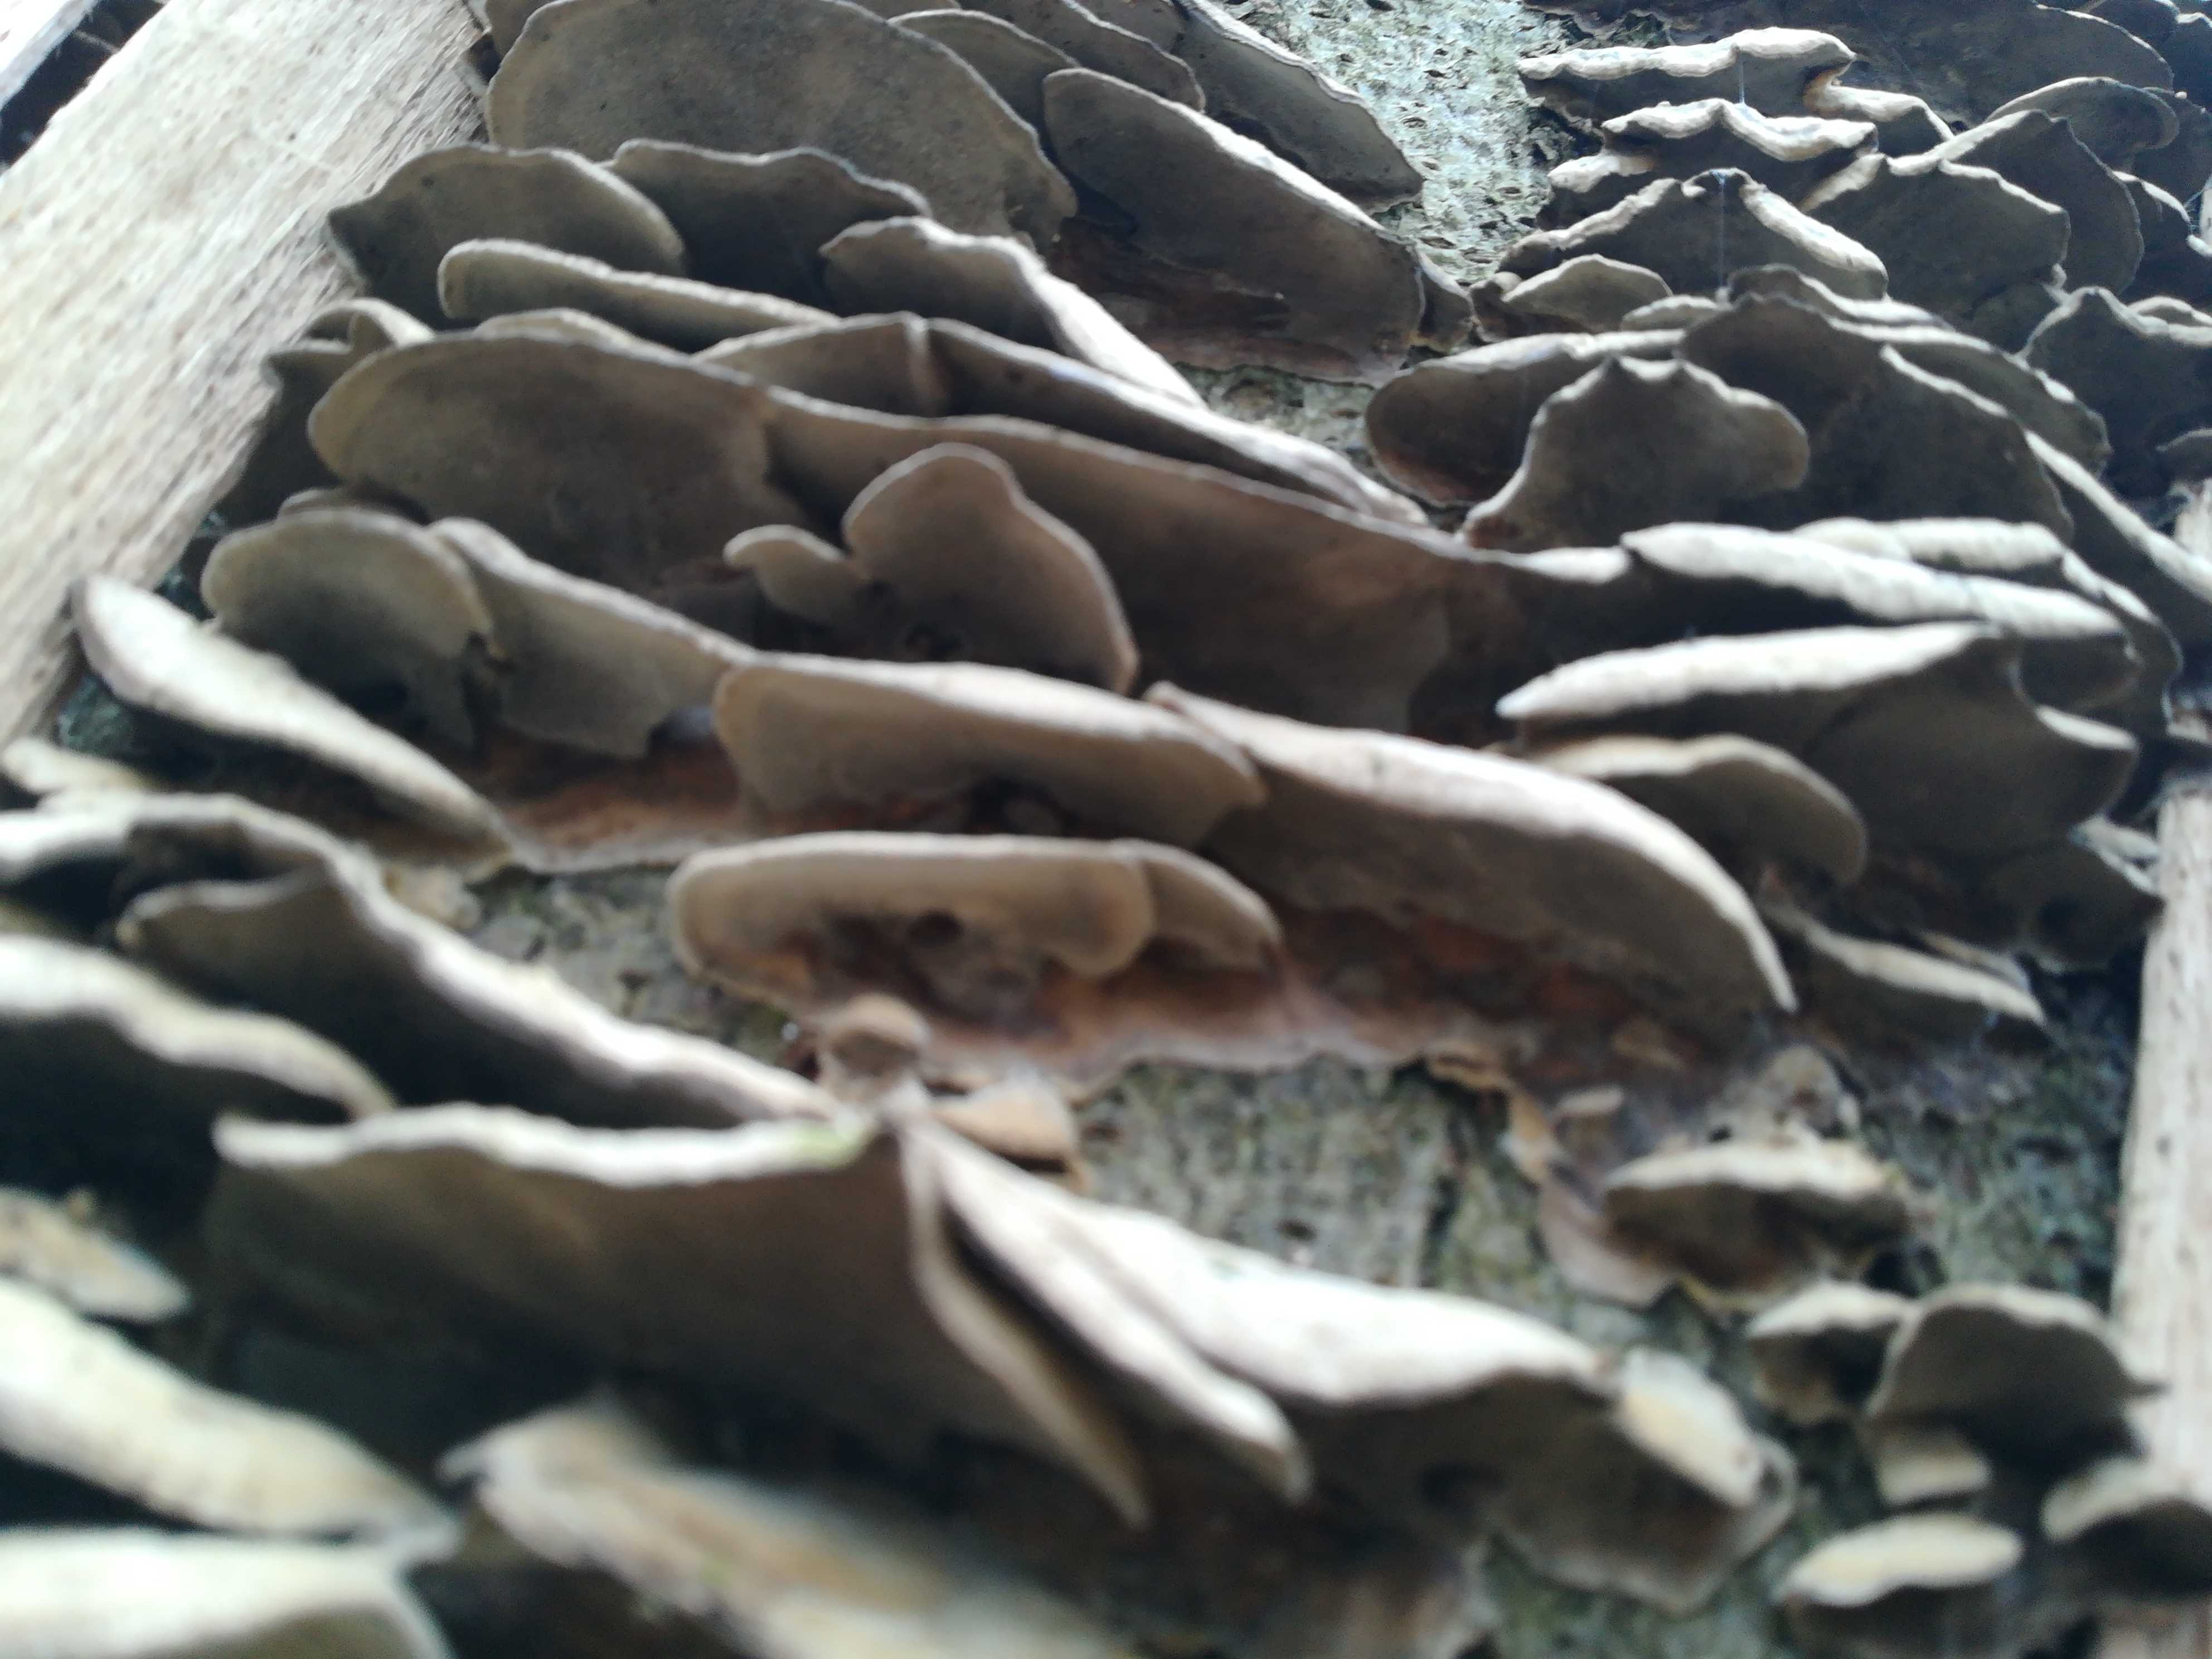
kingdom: Fungi
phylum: Basidiomycota
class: Agaricomycetes
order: Polyporales
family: Phanerochaetaceae
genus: Bjerkandera
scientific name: Bjerkandera adusta
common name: sveden sodporesvamp
